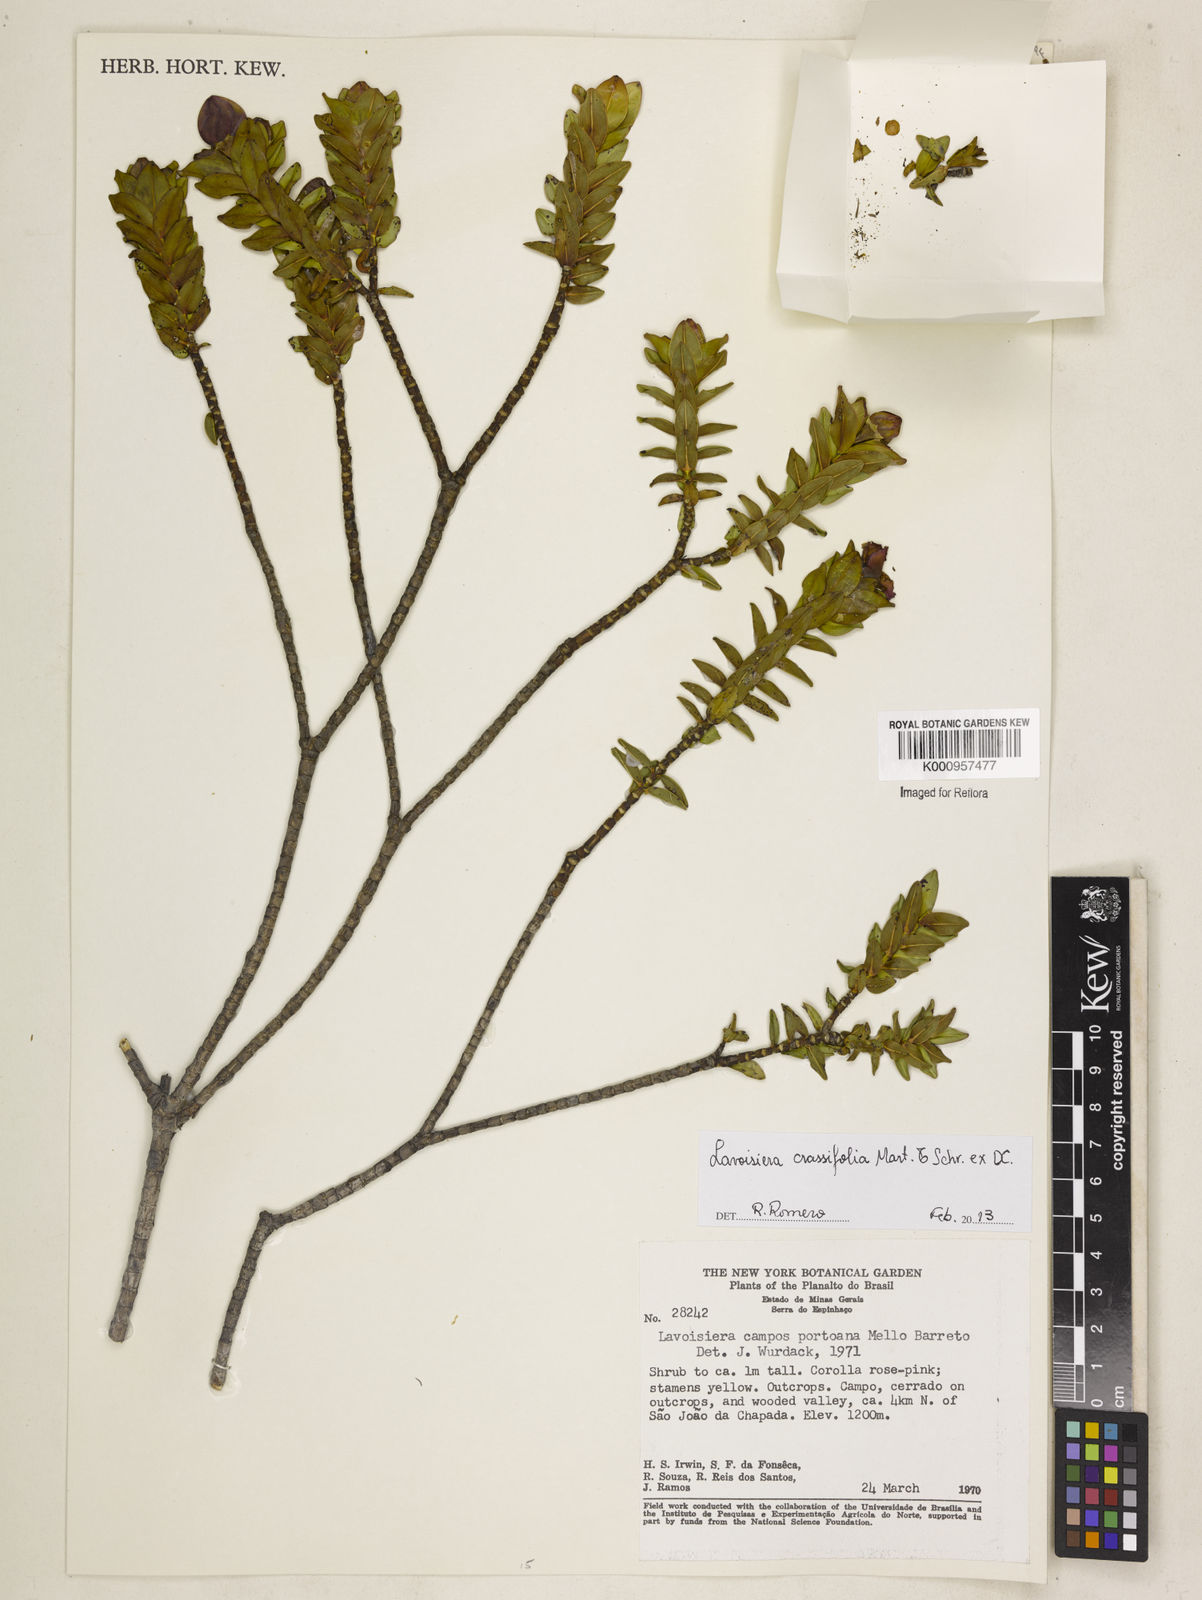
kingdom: Plantae
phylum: Tracheophyta
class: Magnoliopsida
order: Myrtales
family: Melastomataceae
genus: Microlicia
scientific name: Microlicia crassifolia
